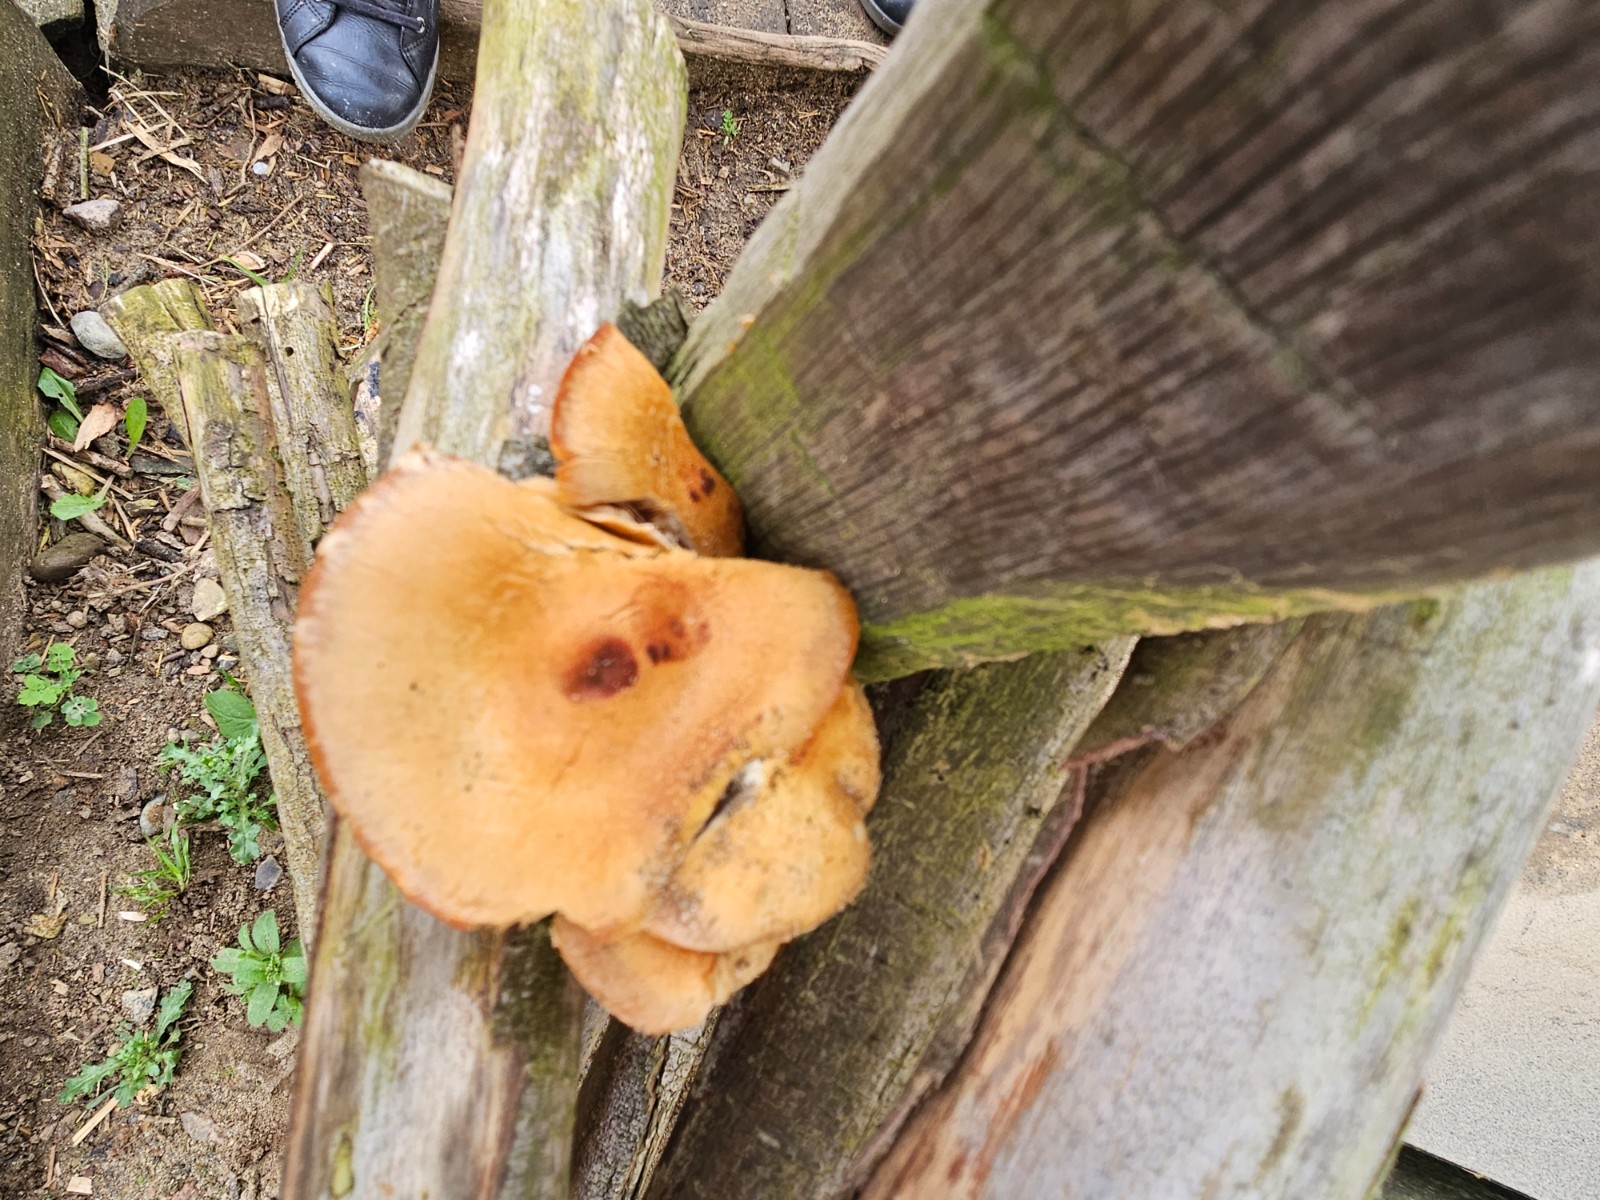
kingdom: Fungi
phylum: Basidiomycota
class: Agaricomycetes
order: Agaricales
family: Strophariaceae
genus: Kuehneromyces
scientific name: Kuehneromyces mutabilis
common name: foranderlig skælhat
